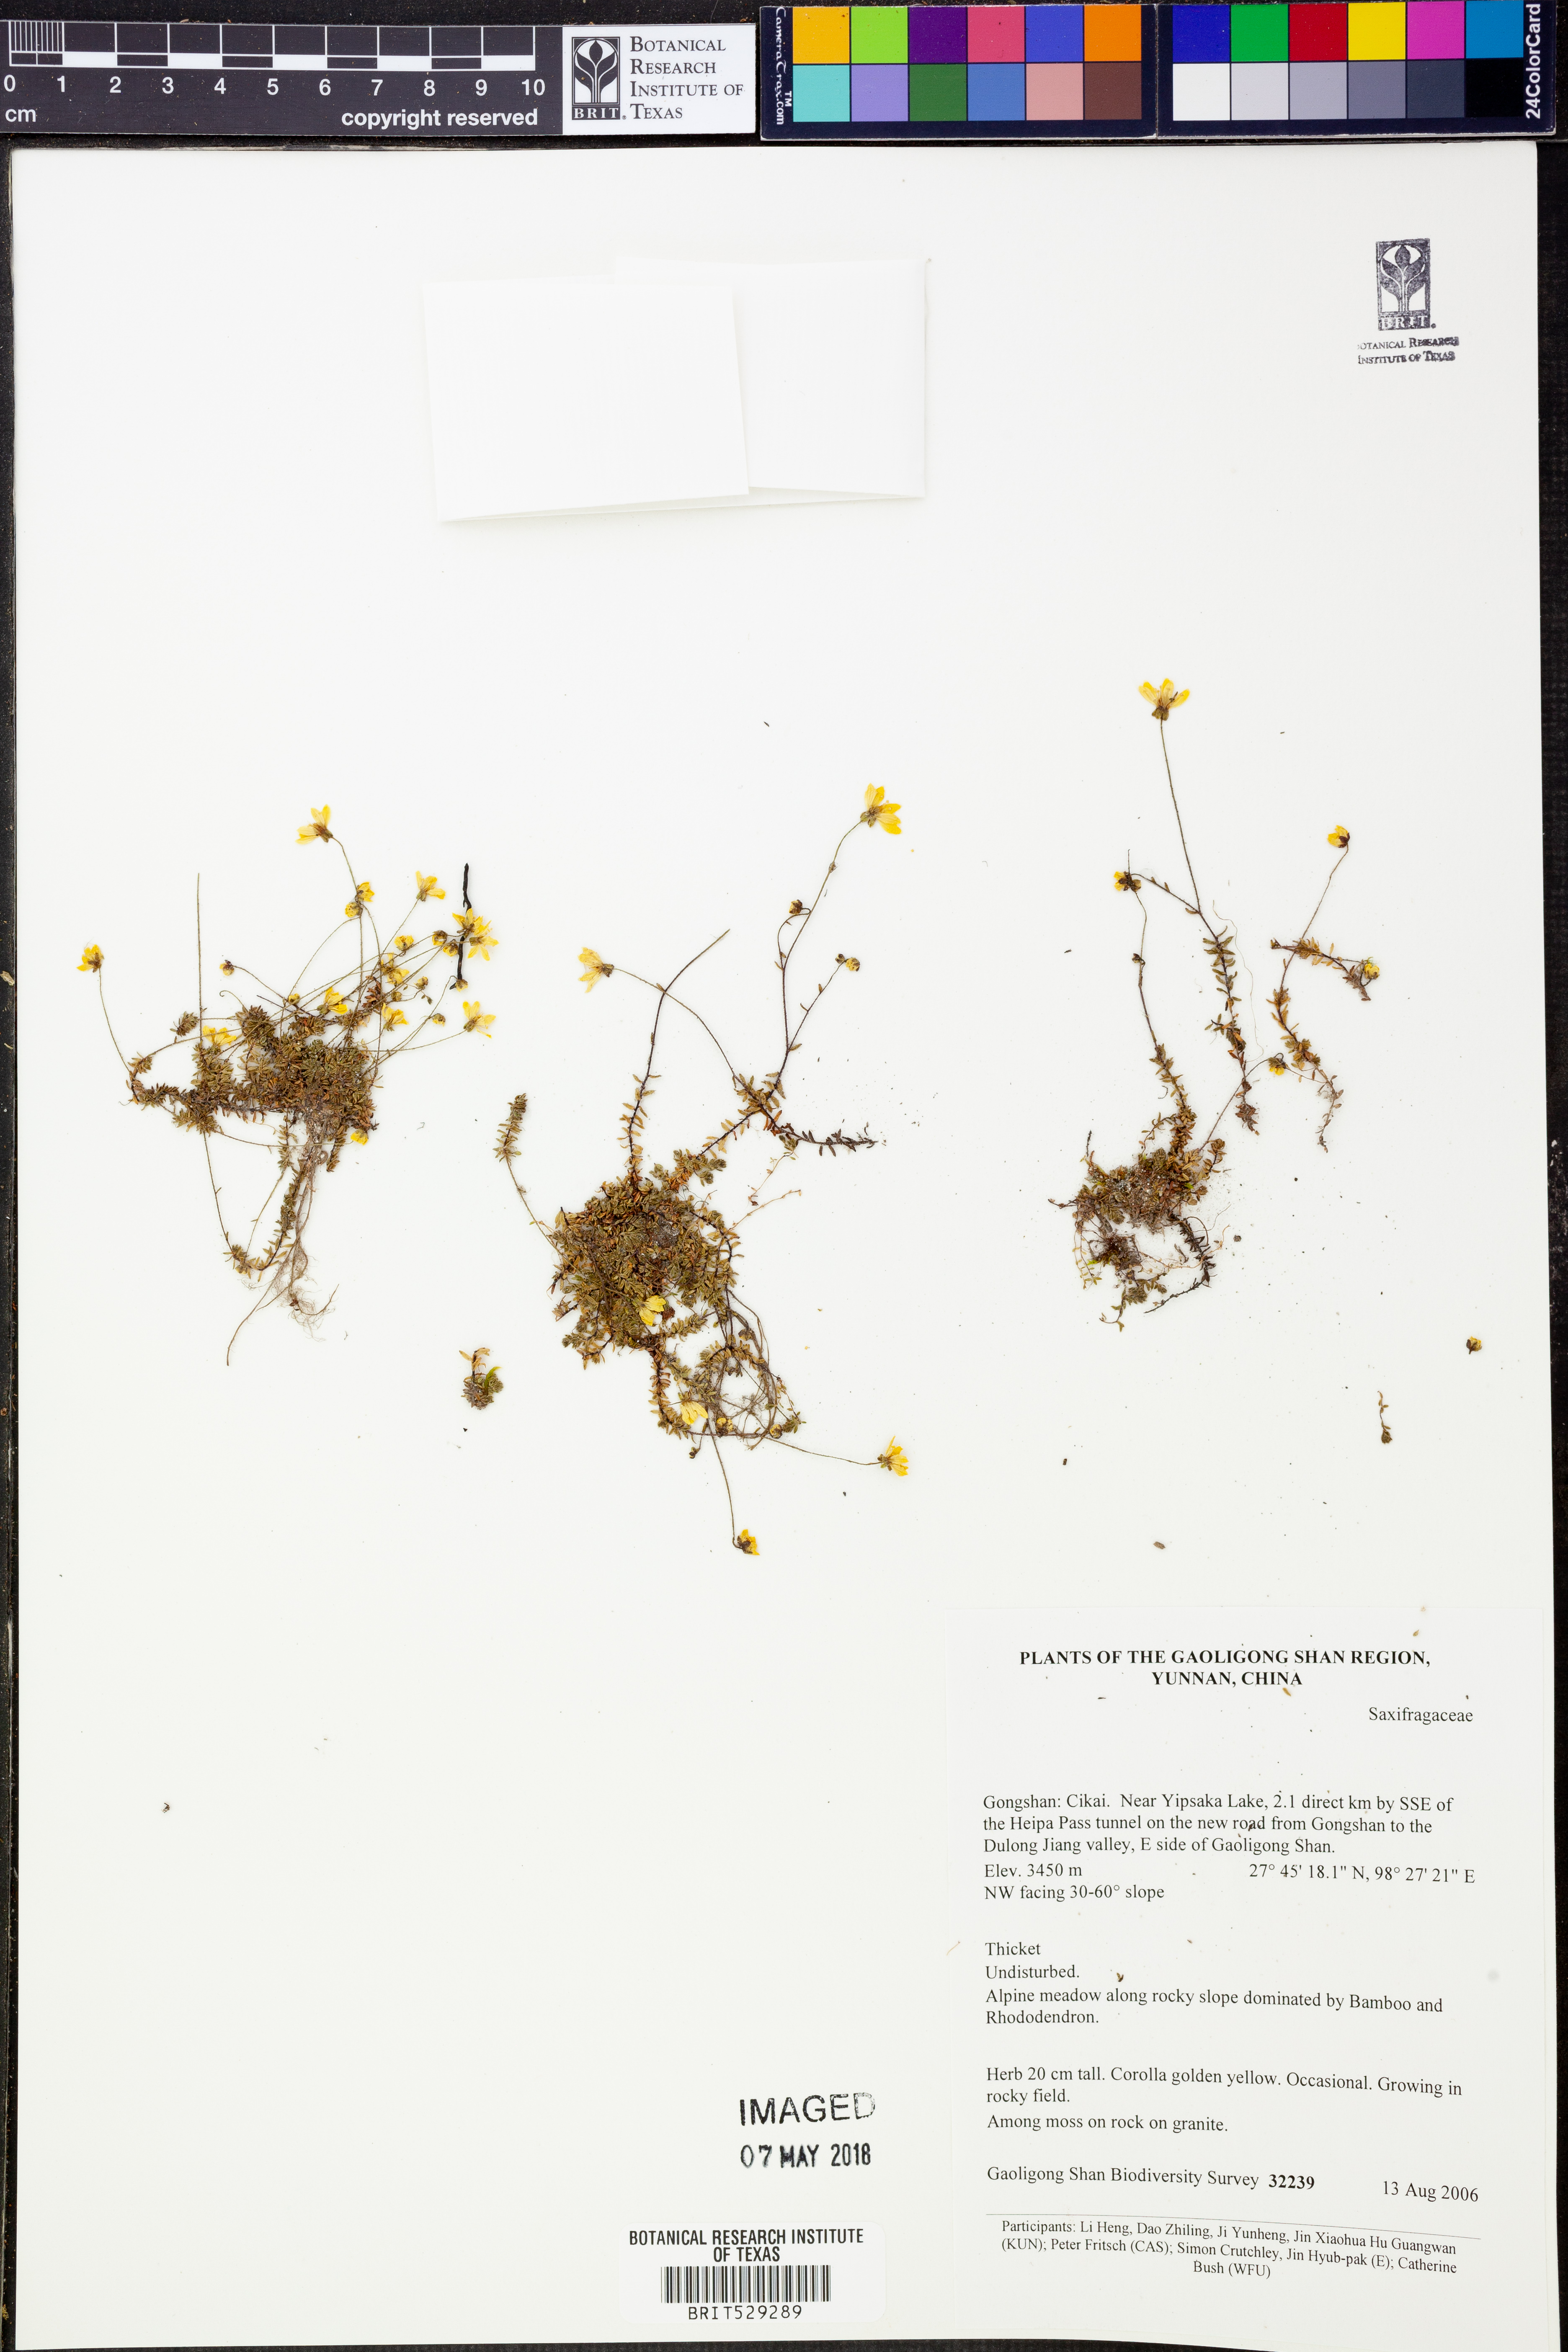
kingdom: Plantae
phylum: Tracheophyta
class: Magnoliopsida
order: Saxifragales
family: Saxifragaceae
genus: Saxifraga
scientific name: Saxifraga
